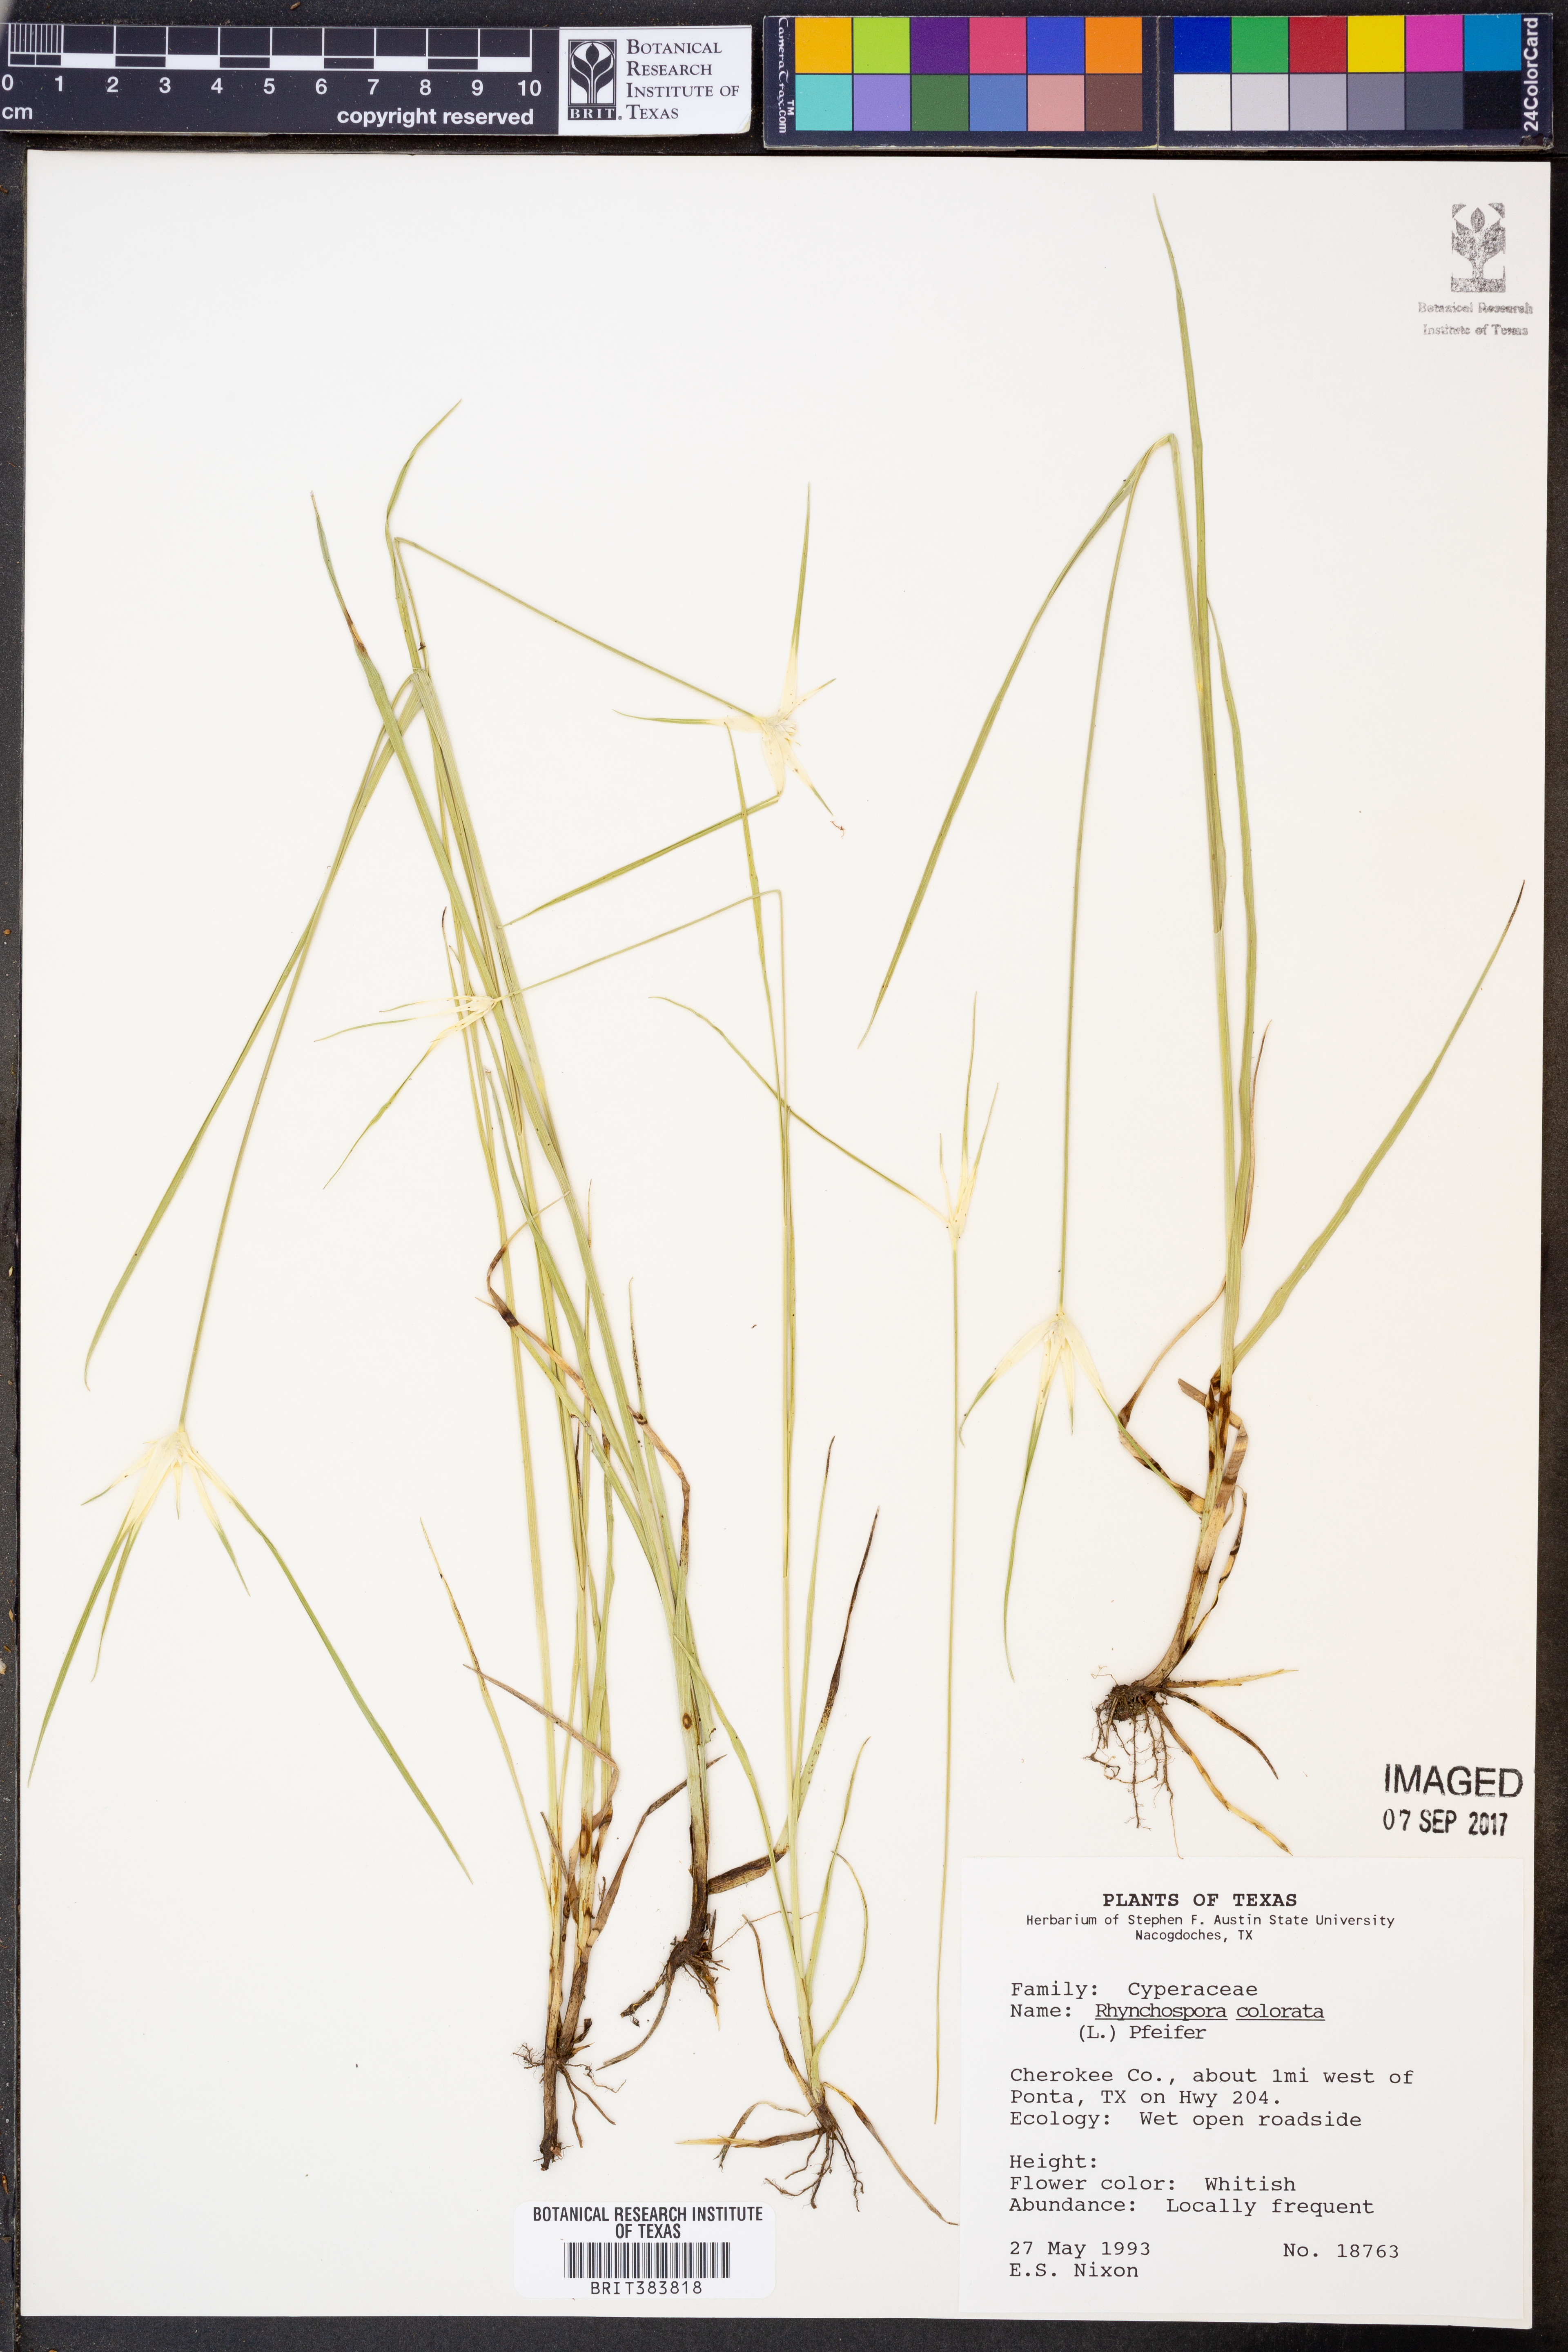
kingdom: Plantae
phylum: Tracheophyta
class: Liliopsida
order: Poales
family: Cyperaceae
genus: Rhynchospora
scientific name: Rhynchospora colorata
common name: Star sedge
